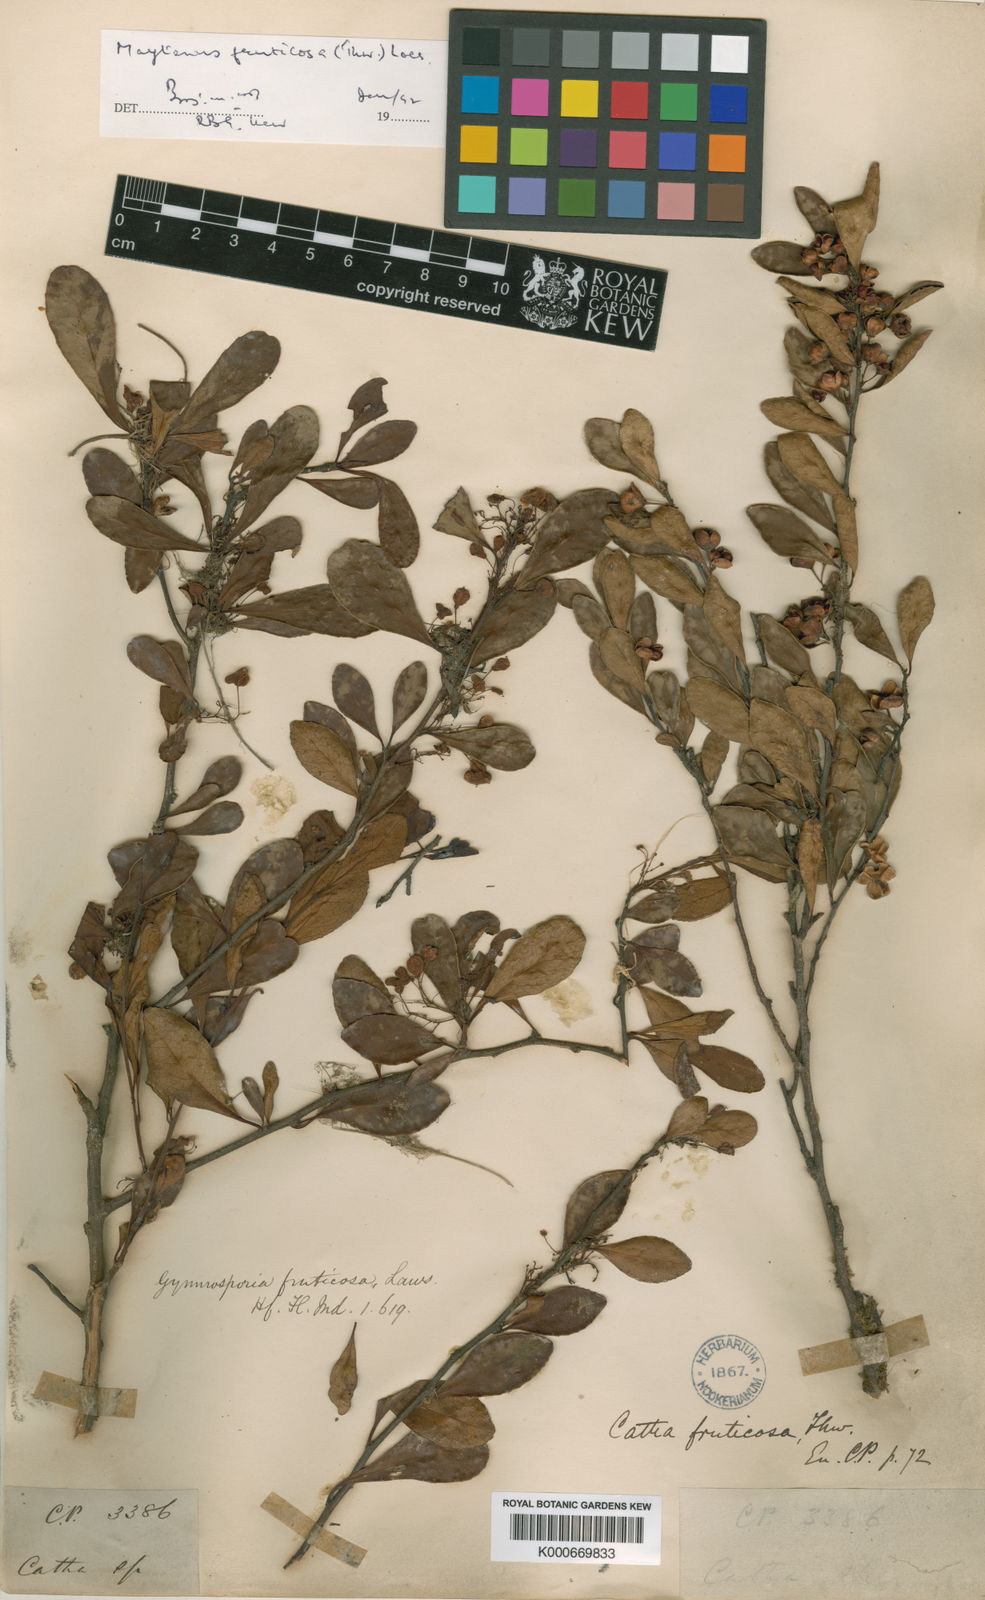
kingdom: Plantae
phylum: Tracheophyta
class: Magnoliopsida
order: Celastrales
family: Celastraceae
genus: Gymnosporia
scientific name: Gymnosporia fruticosa
